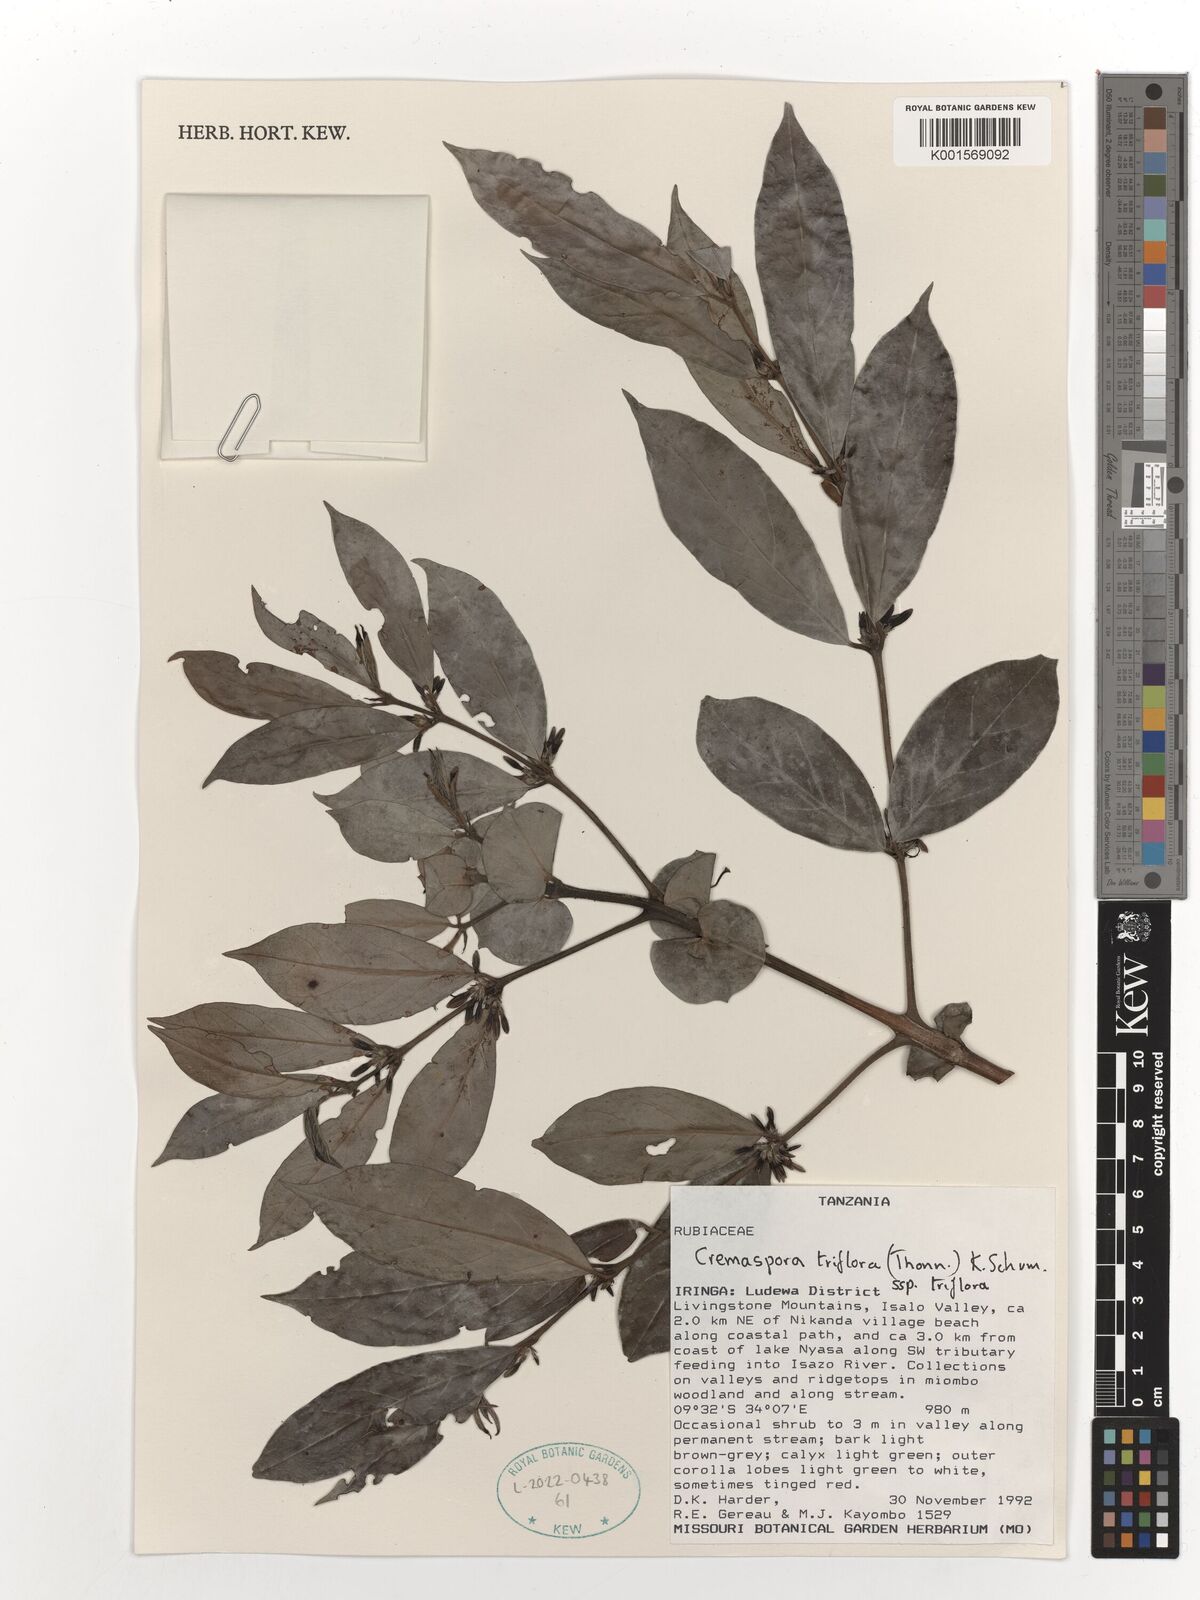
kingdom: Plantae
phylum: Tracheophyta
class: Magnoliopsida
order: Gentianales
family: Rubiaceae
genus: Cremaspora
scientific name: Cremaspora triflora
